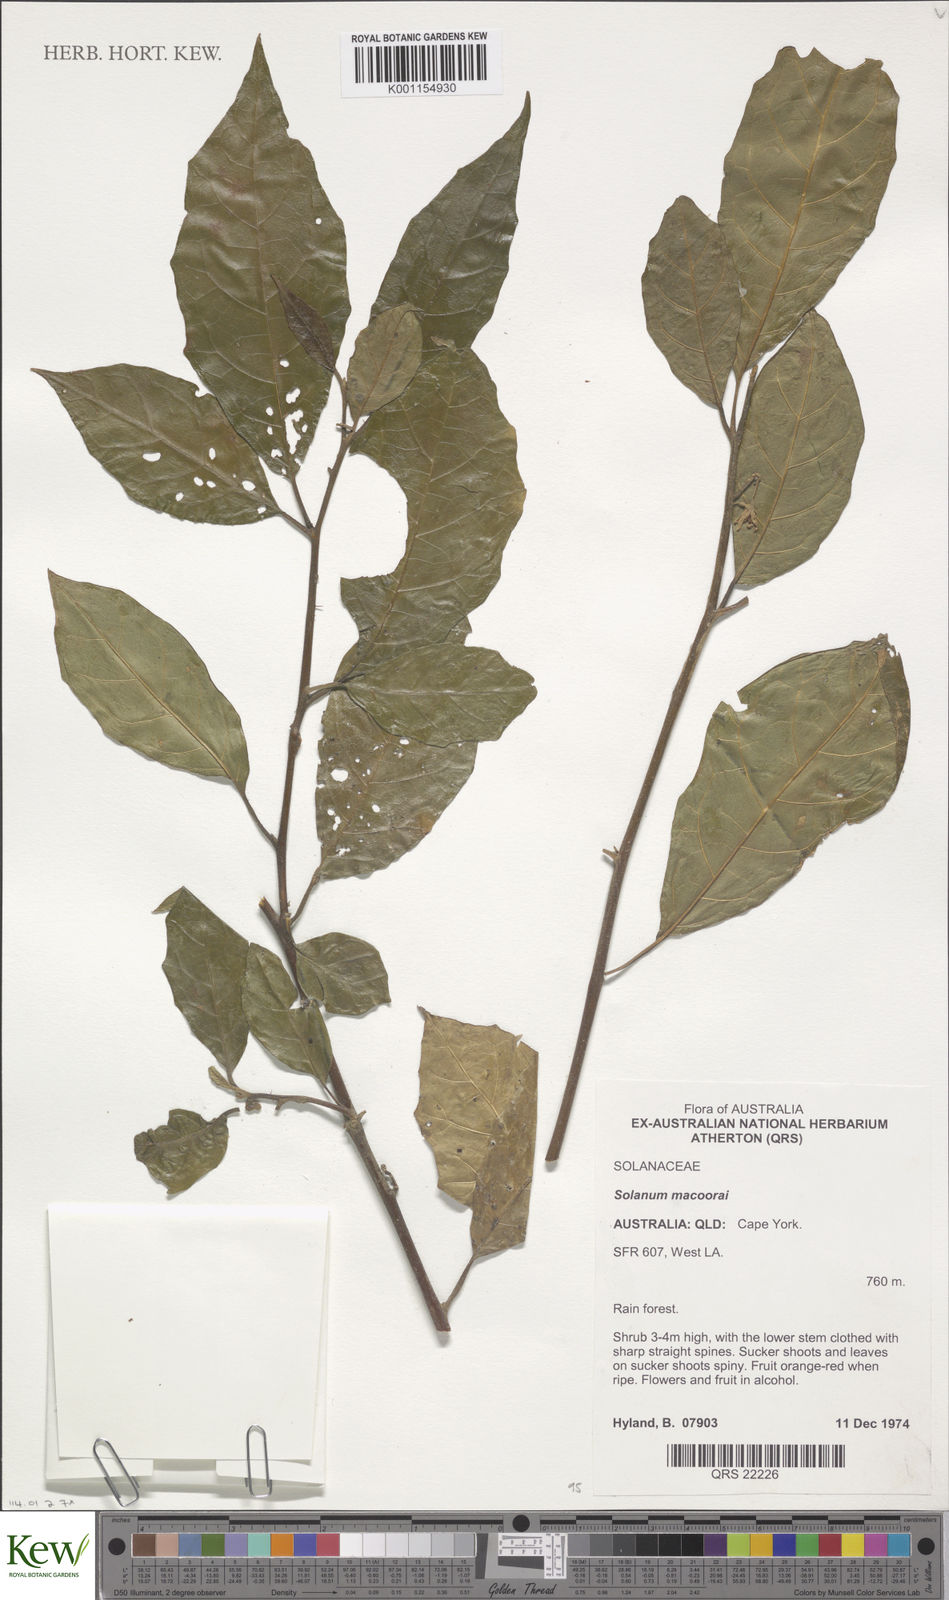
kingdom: Plantae
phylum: Tracheophyta
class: Magnoliopsida
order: Solanales
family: Solanaceae
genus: Solanum
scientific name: Solanum macoorai
